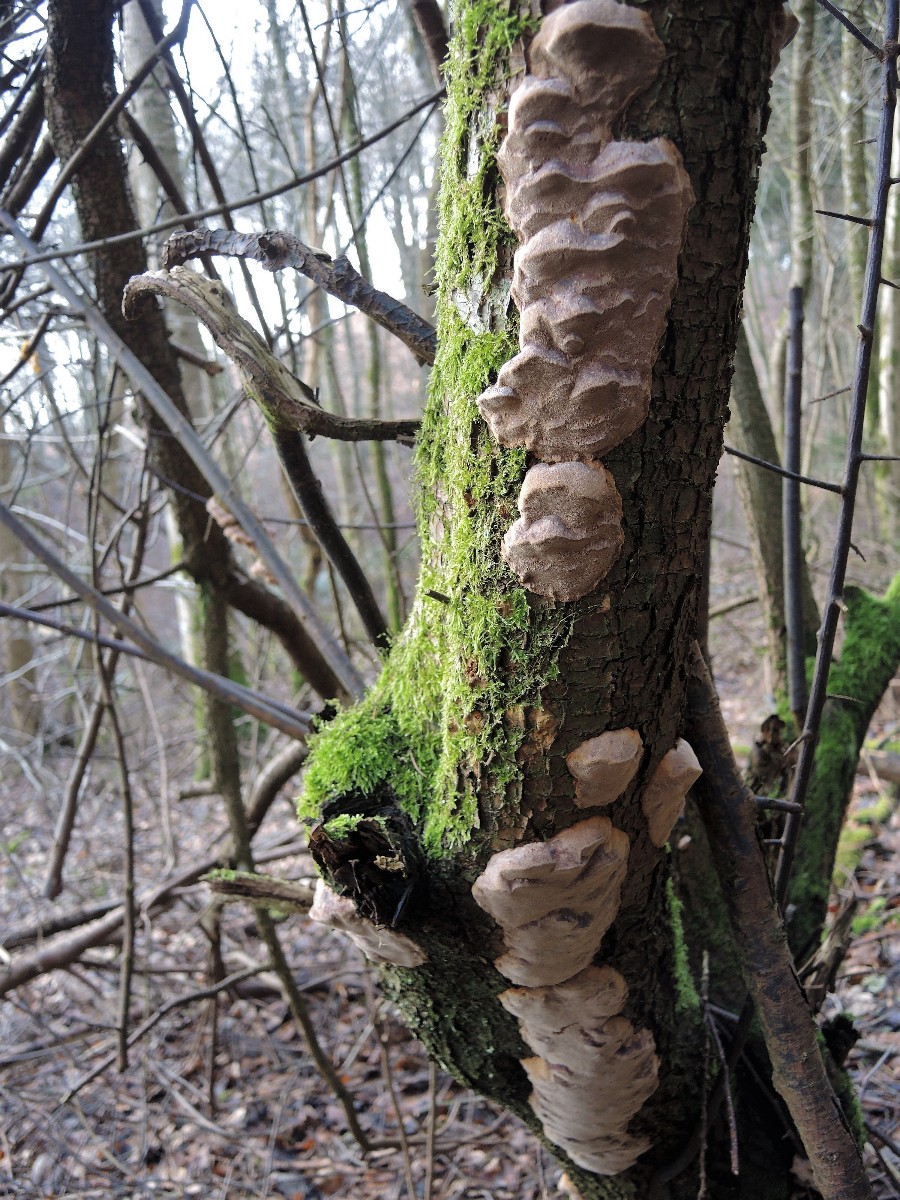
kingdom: Fungi
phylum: Basidiomycota
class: Agaricomycetes
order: Hymenochaetales
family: Hymenochaetaceae
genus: Phellinus
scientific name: Phellinus pomaceus
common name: blomme-ildporesvamp
